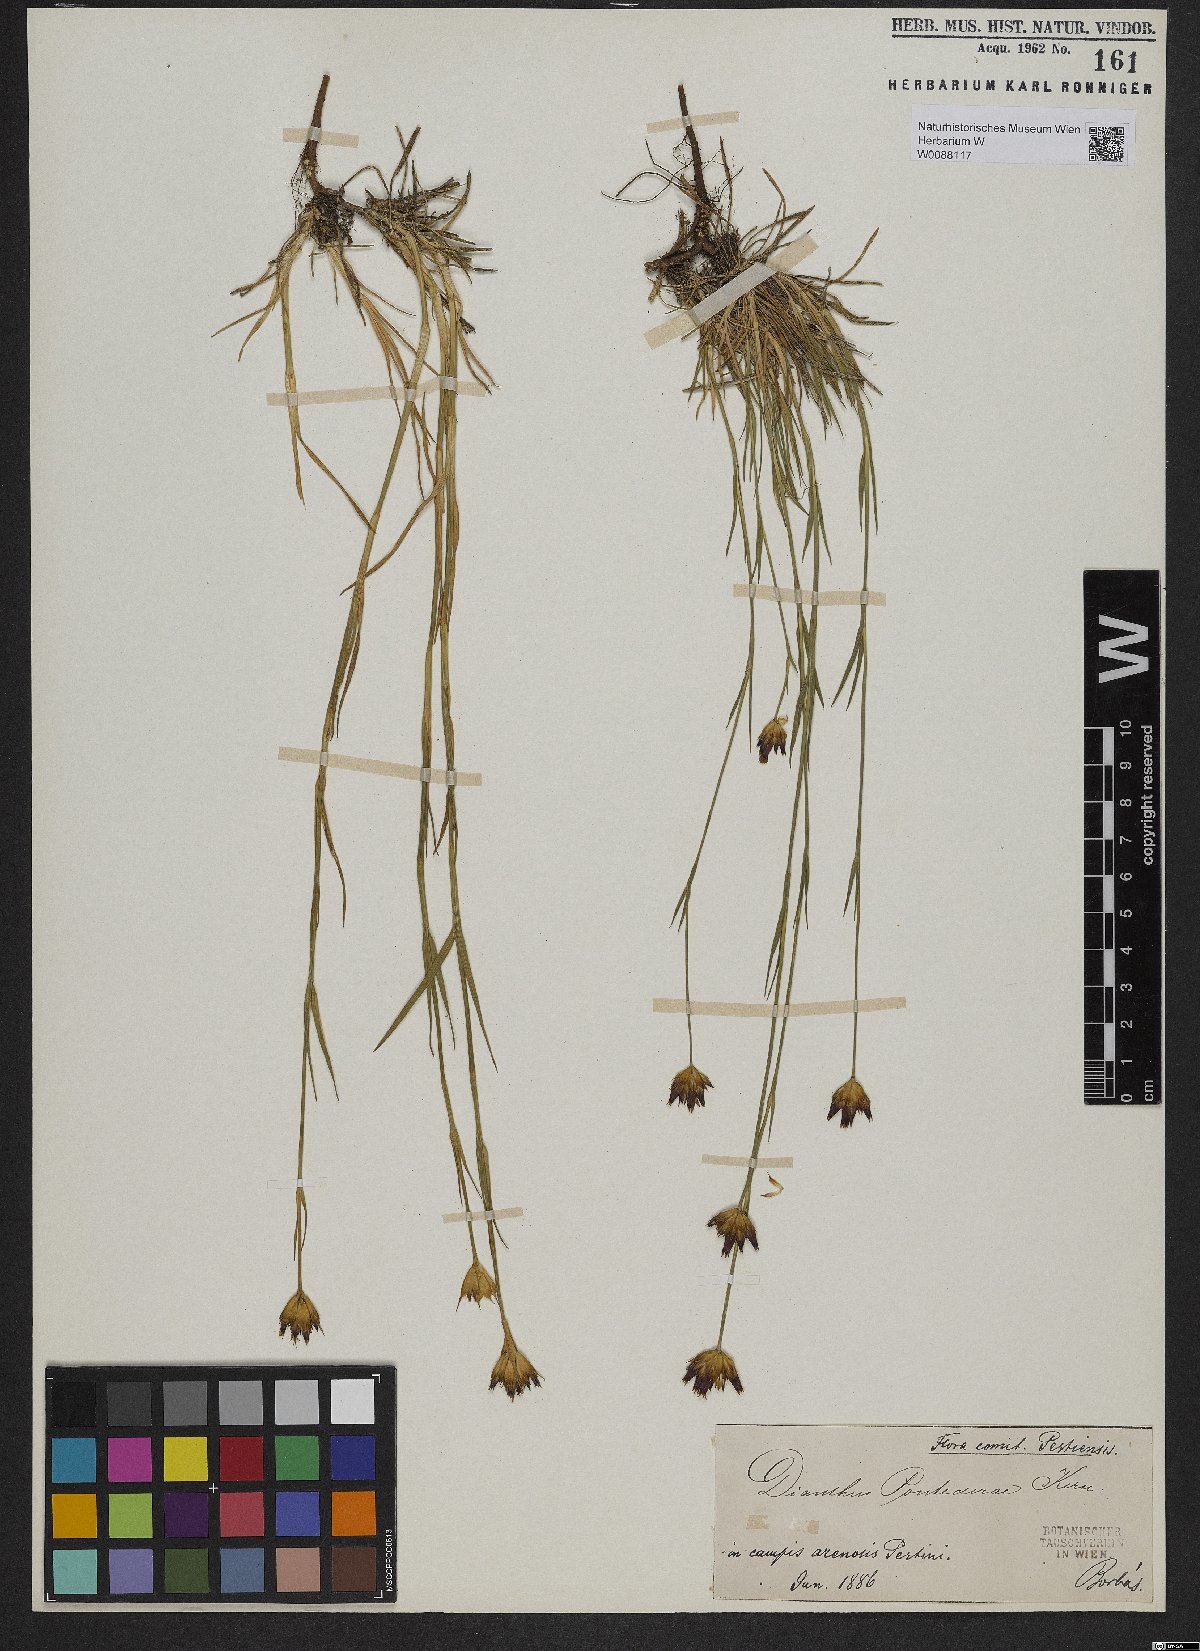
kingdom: Plantae
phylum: Tracheophyta
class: Magnoliopsida
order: Caryophyllales
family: Caryophyllaceae
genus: Dianthus
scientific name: Dianthus pontederae
